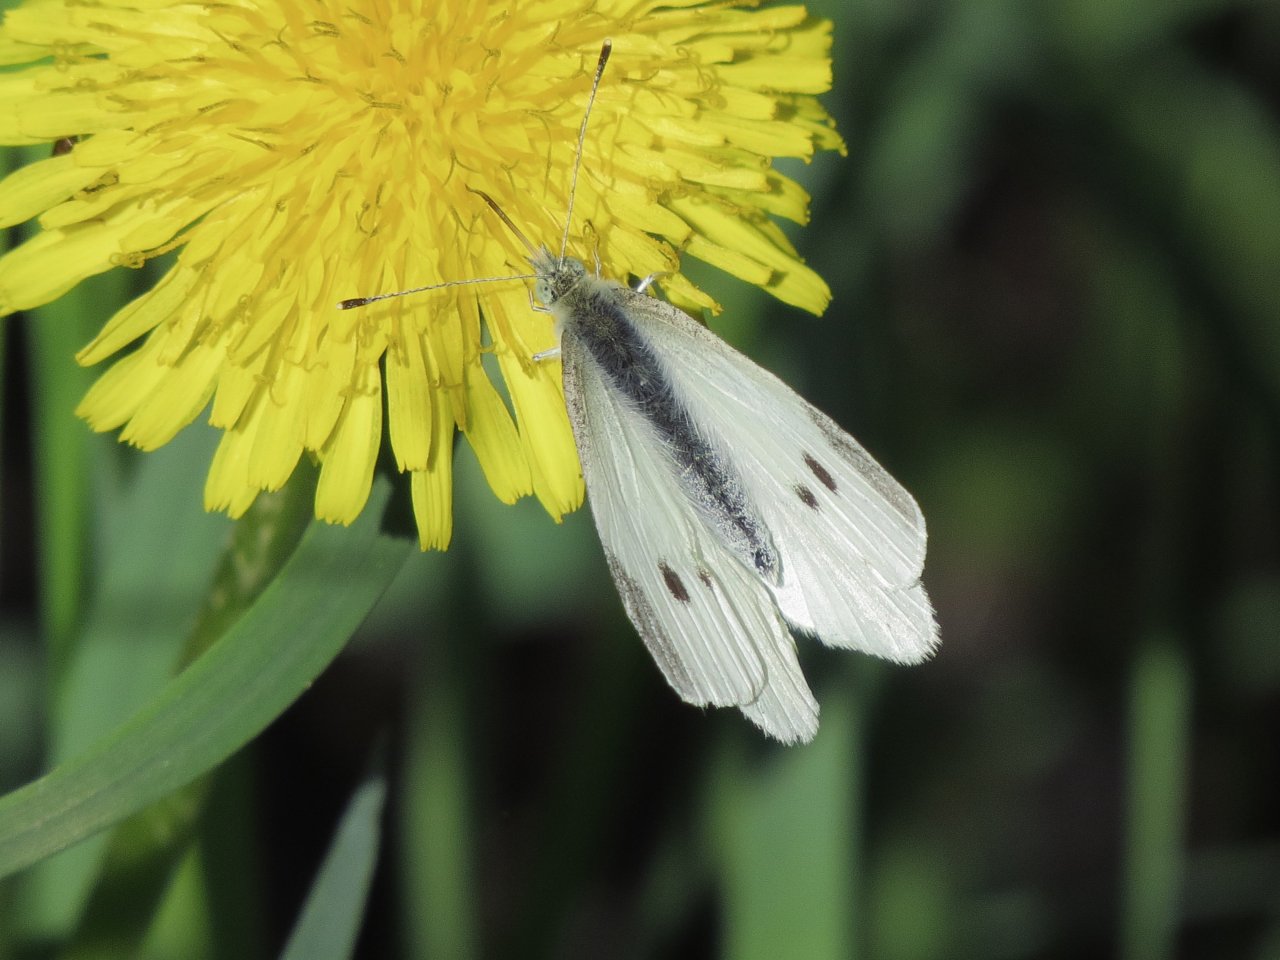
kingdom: Animalia
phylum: Arthropoda
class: Insecta
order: Lepidoptera
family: Pieridae
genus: Pieris
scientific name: Pieris rapae
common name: Cabbage White
